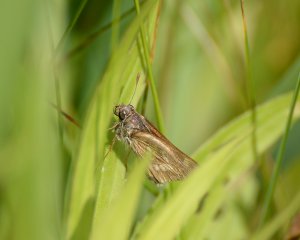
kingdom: Animalia
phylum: Arthropoda
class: Insecta
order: Lepidoptera
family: Hesperiidae
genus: Polites
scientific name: Polites
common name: Long Dash Skipper
